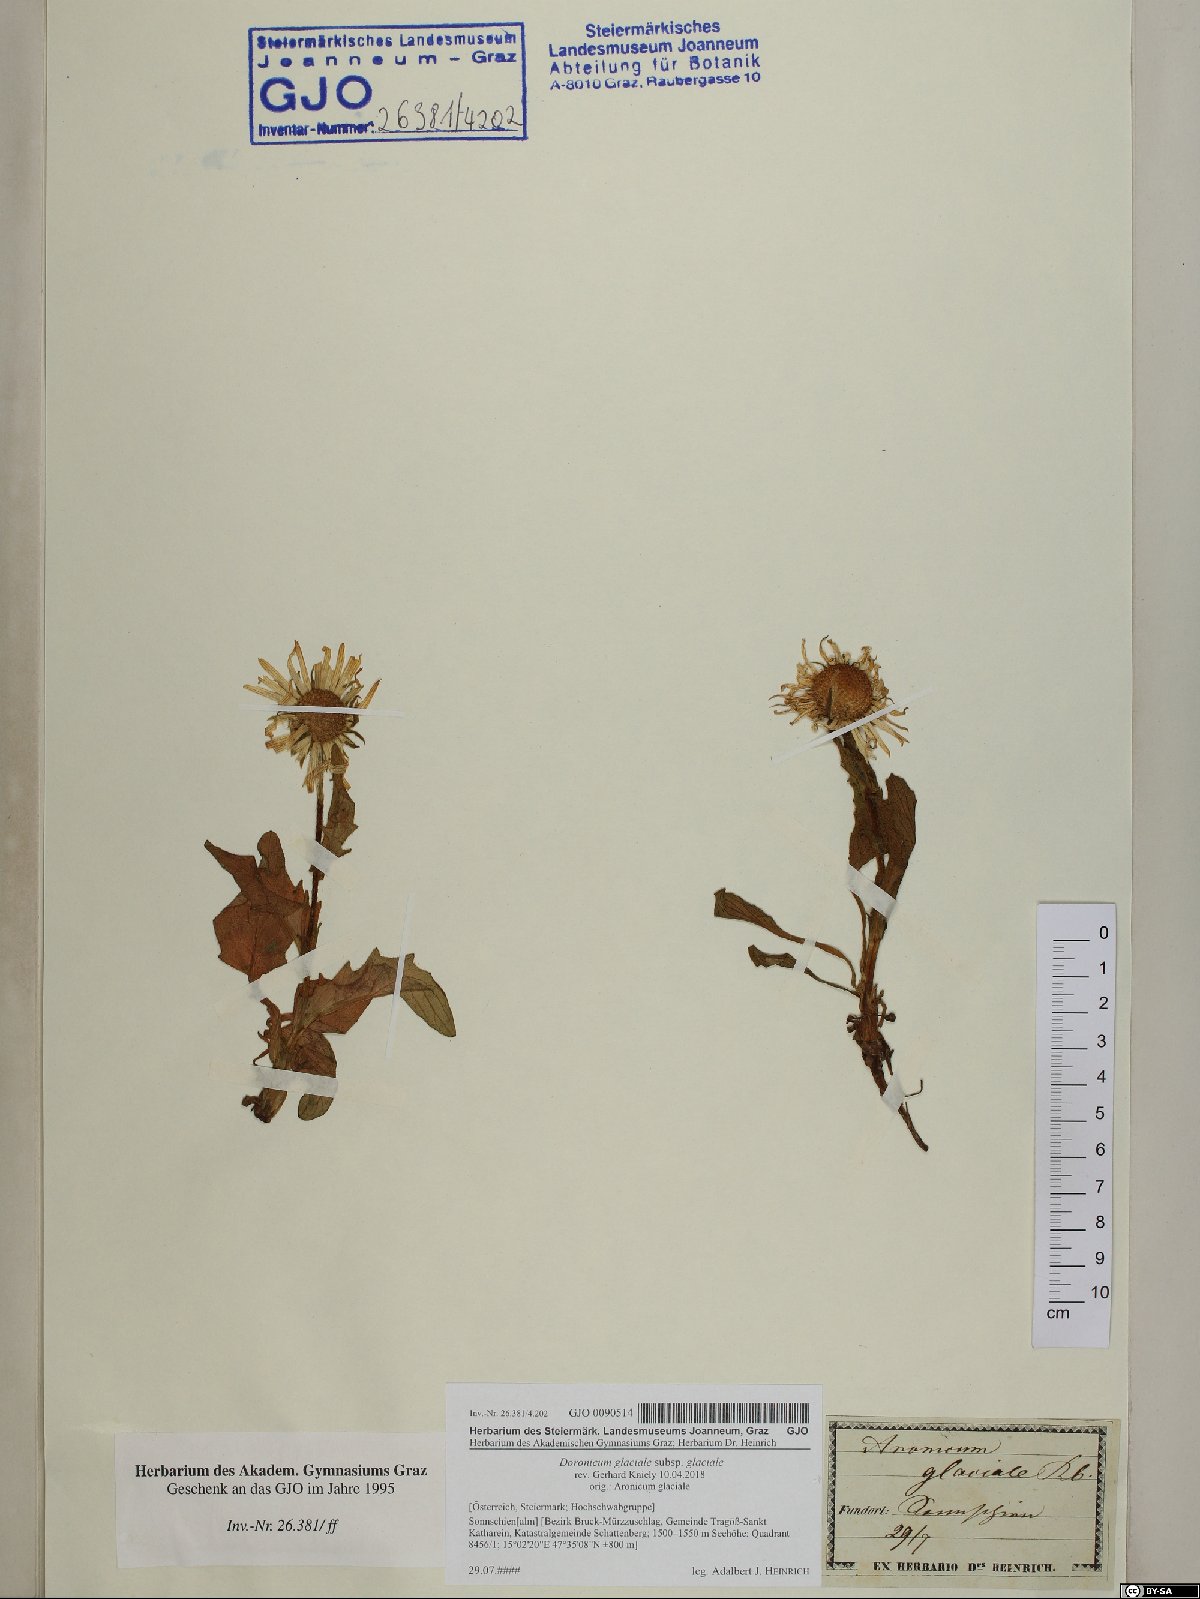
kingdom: Plantae
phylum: Tracheophyta
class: Magnoliopsida
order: Asterales
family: Asteraceae
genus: Doronicum
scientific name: Doronicum glaciale
